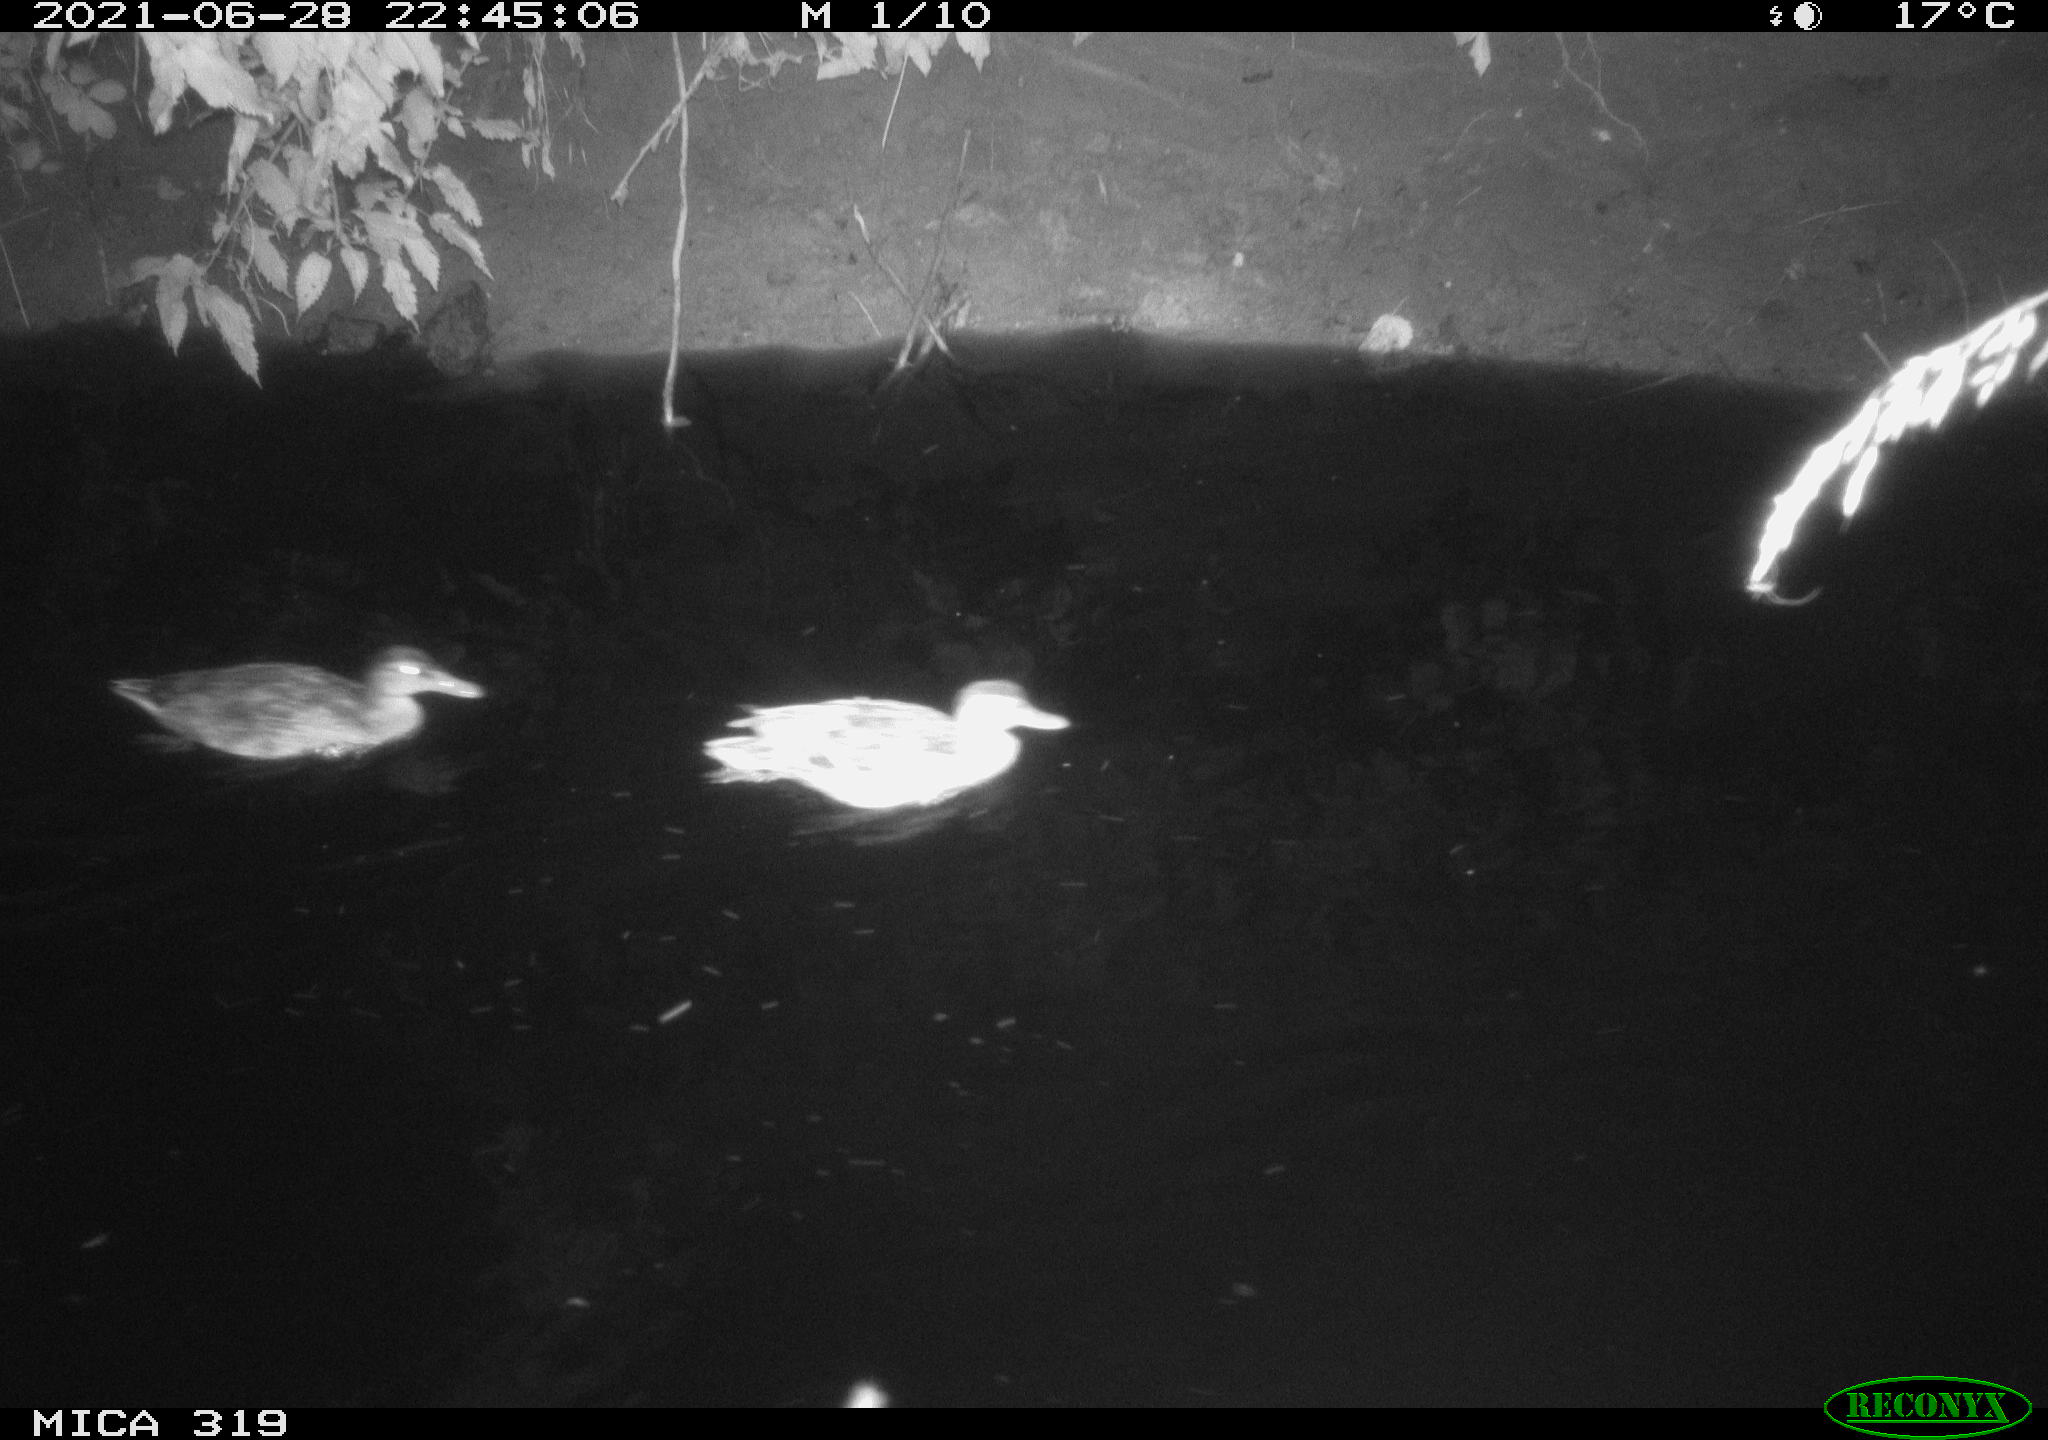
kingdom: Animalia
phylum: Chordata
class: Aves
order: Anseriformes
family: Anatidae
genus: Anas
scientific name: Anas platyrhynchos
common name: Mallard
